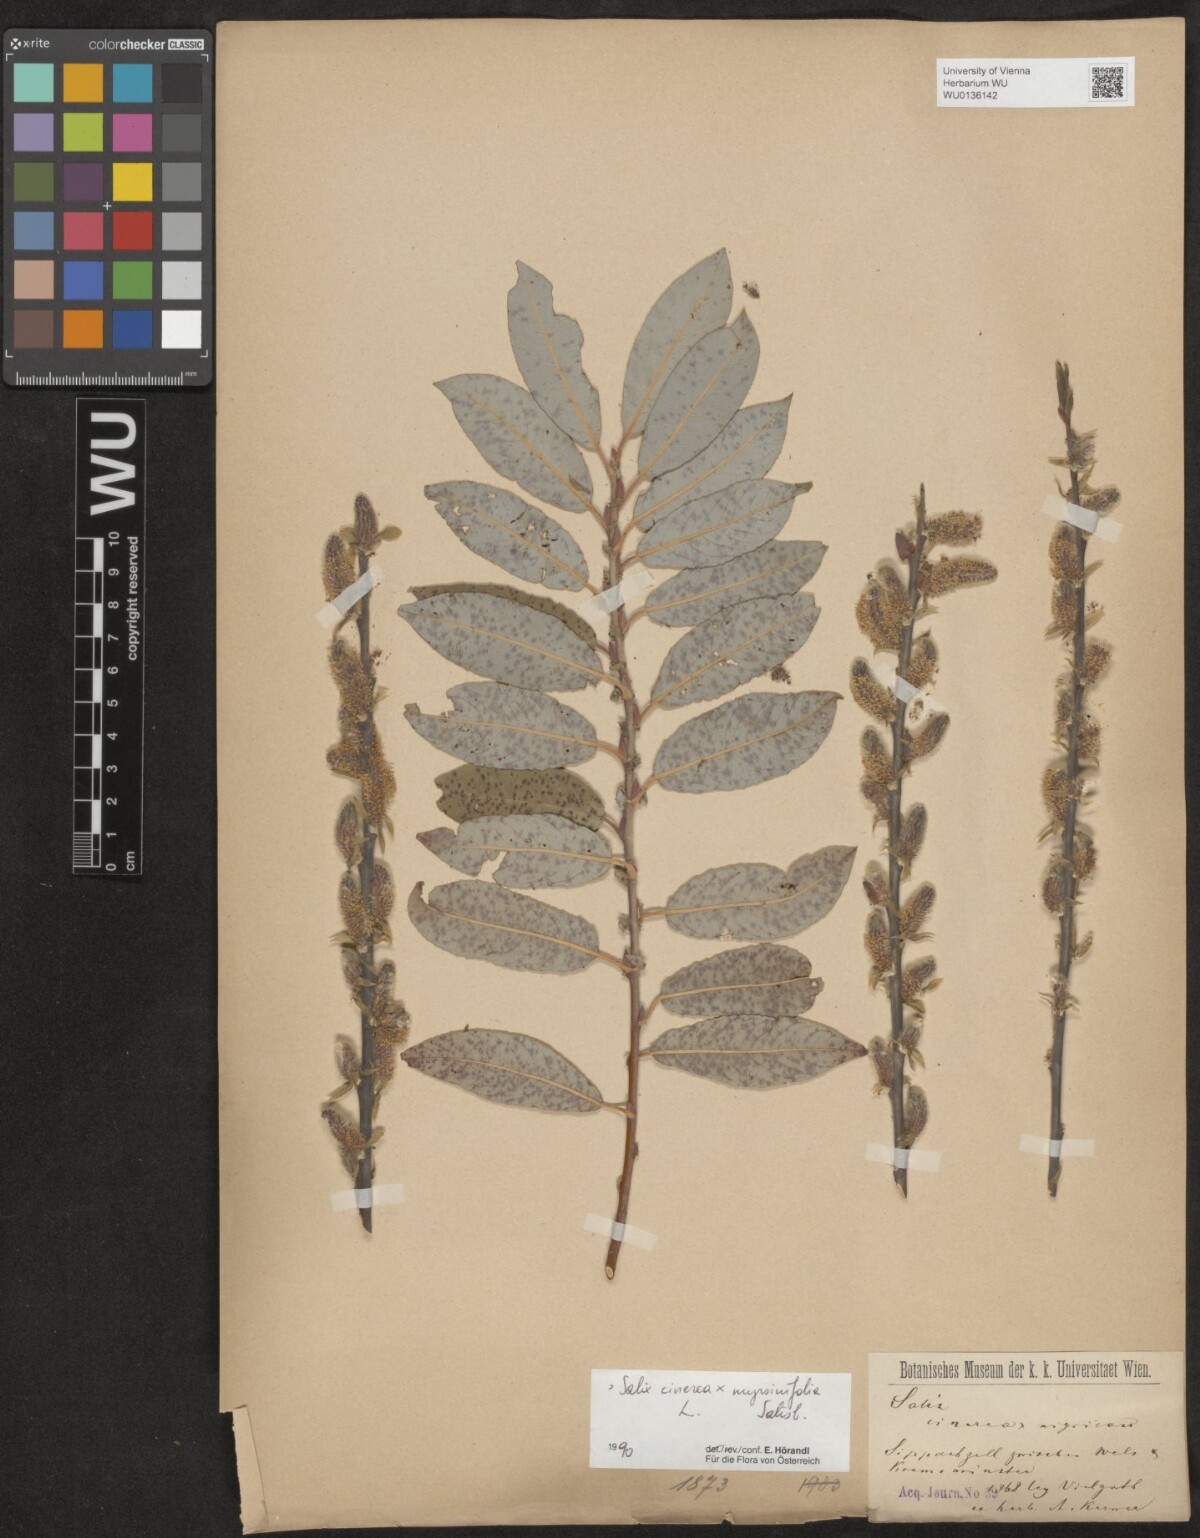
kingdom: Plantae
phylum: Tracheophyta
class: Magnoliopsida
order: Malpighiales
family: Salicaceae
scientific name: Salicaceae
